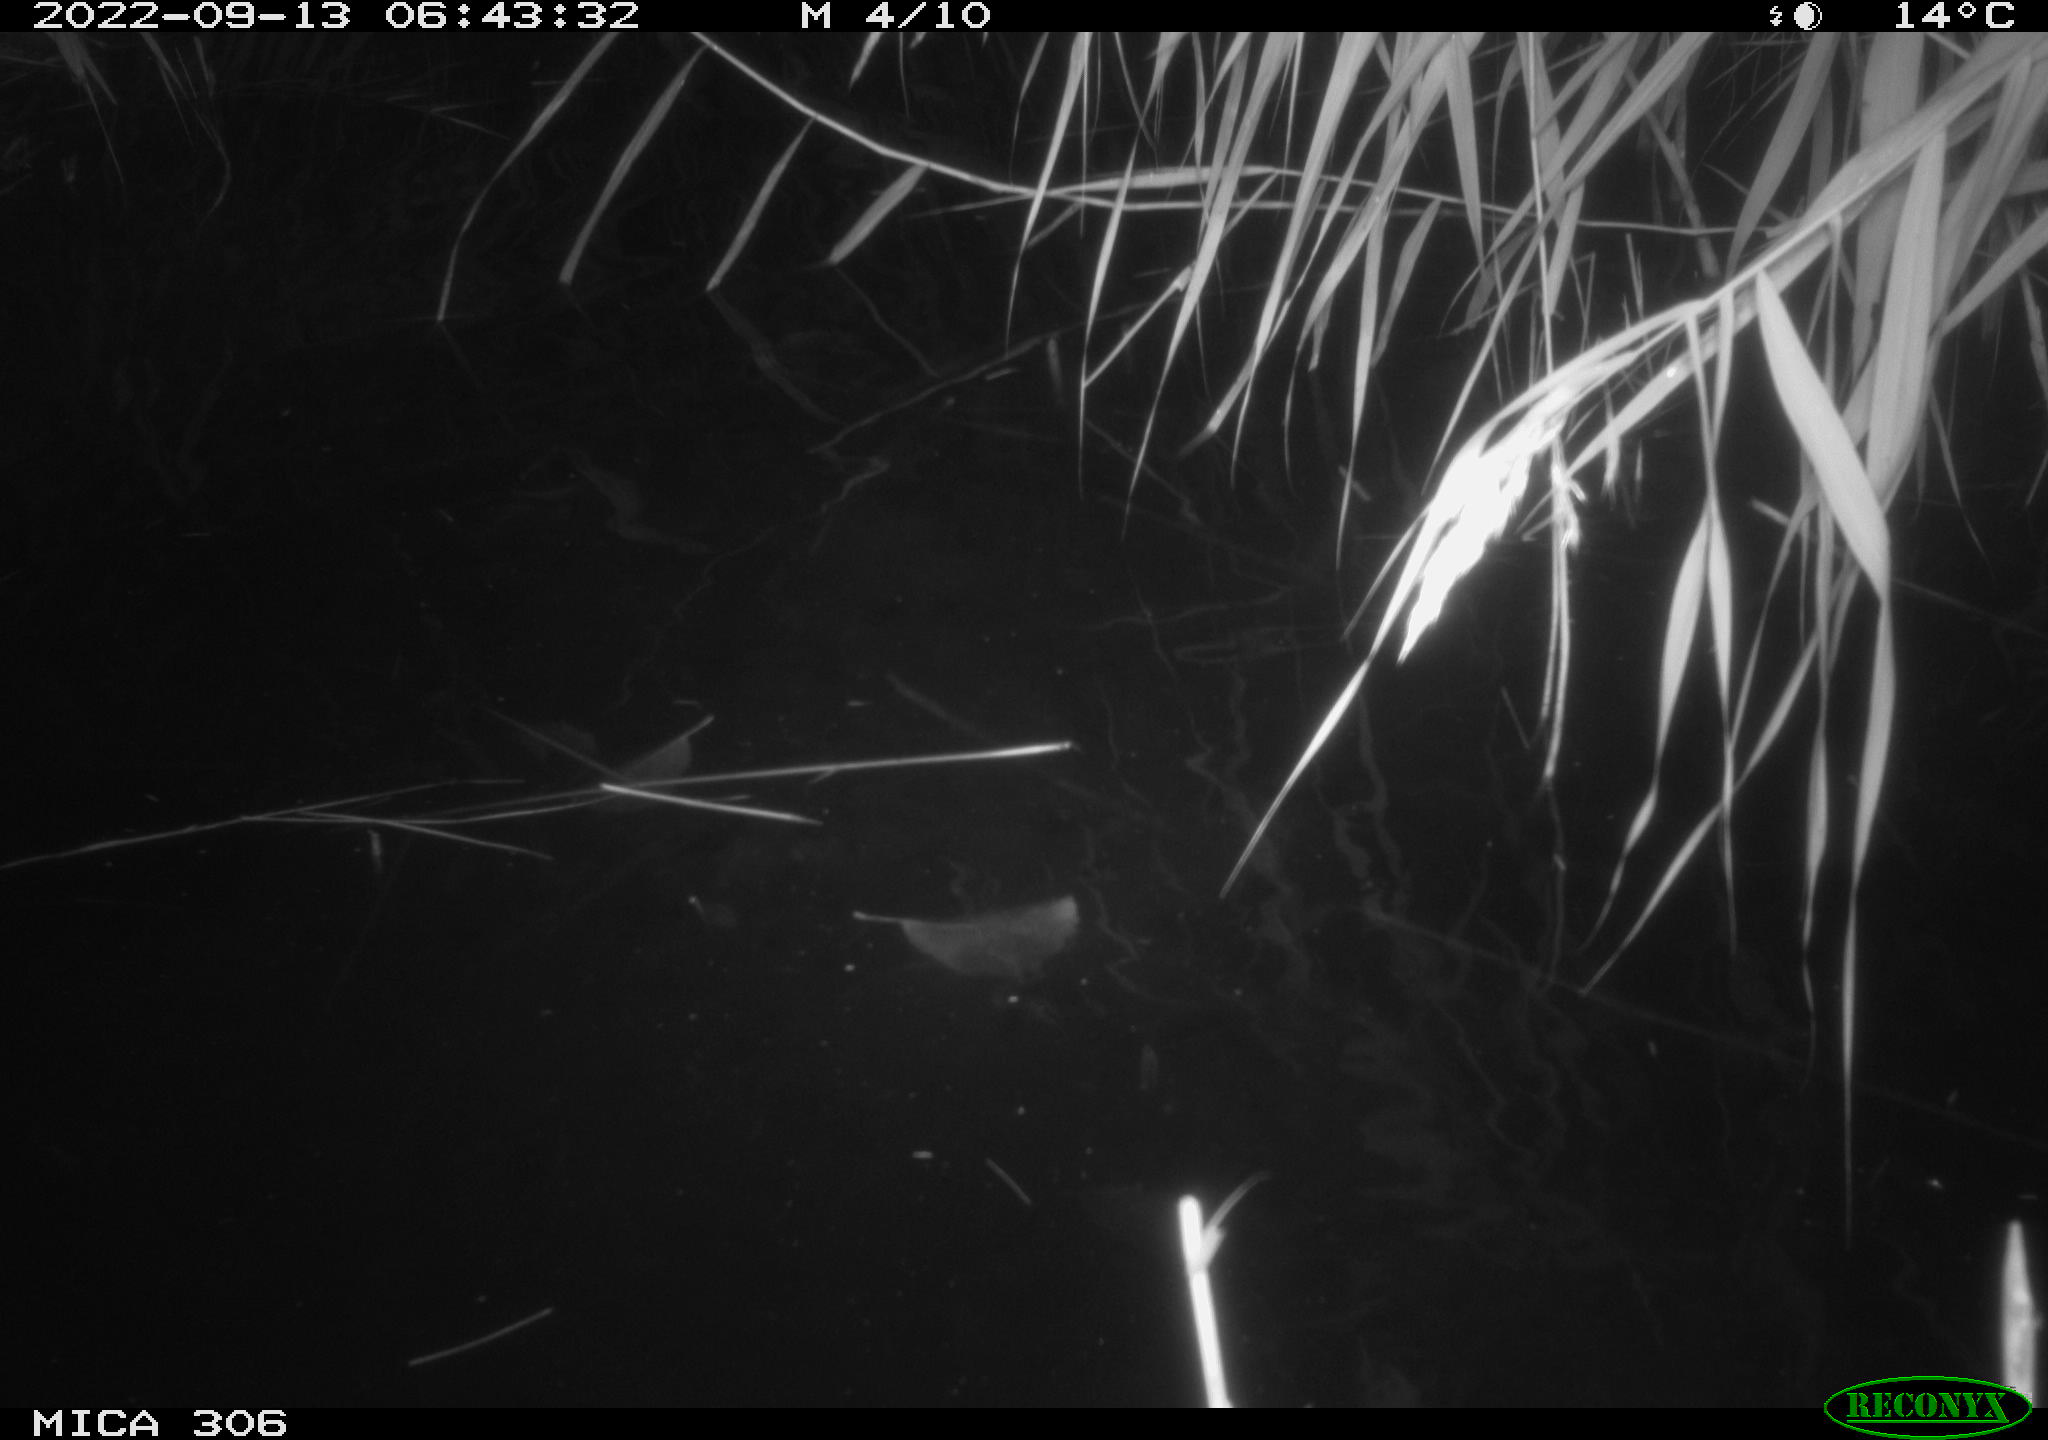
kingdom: Animalia
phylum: Chordata
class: Mammalia
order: Rodentia
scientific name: Rodentia
